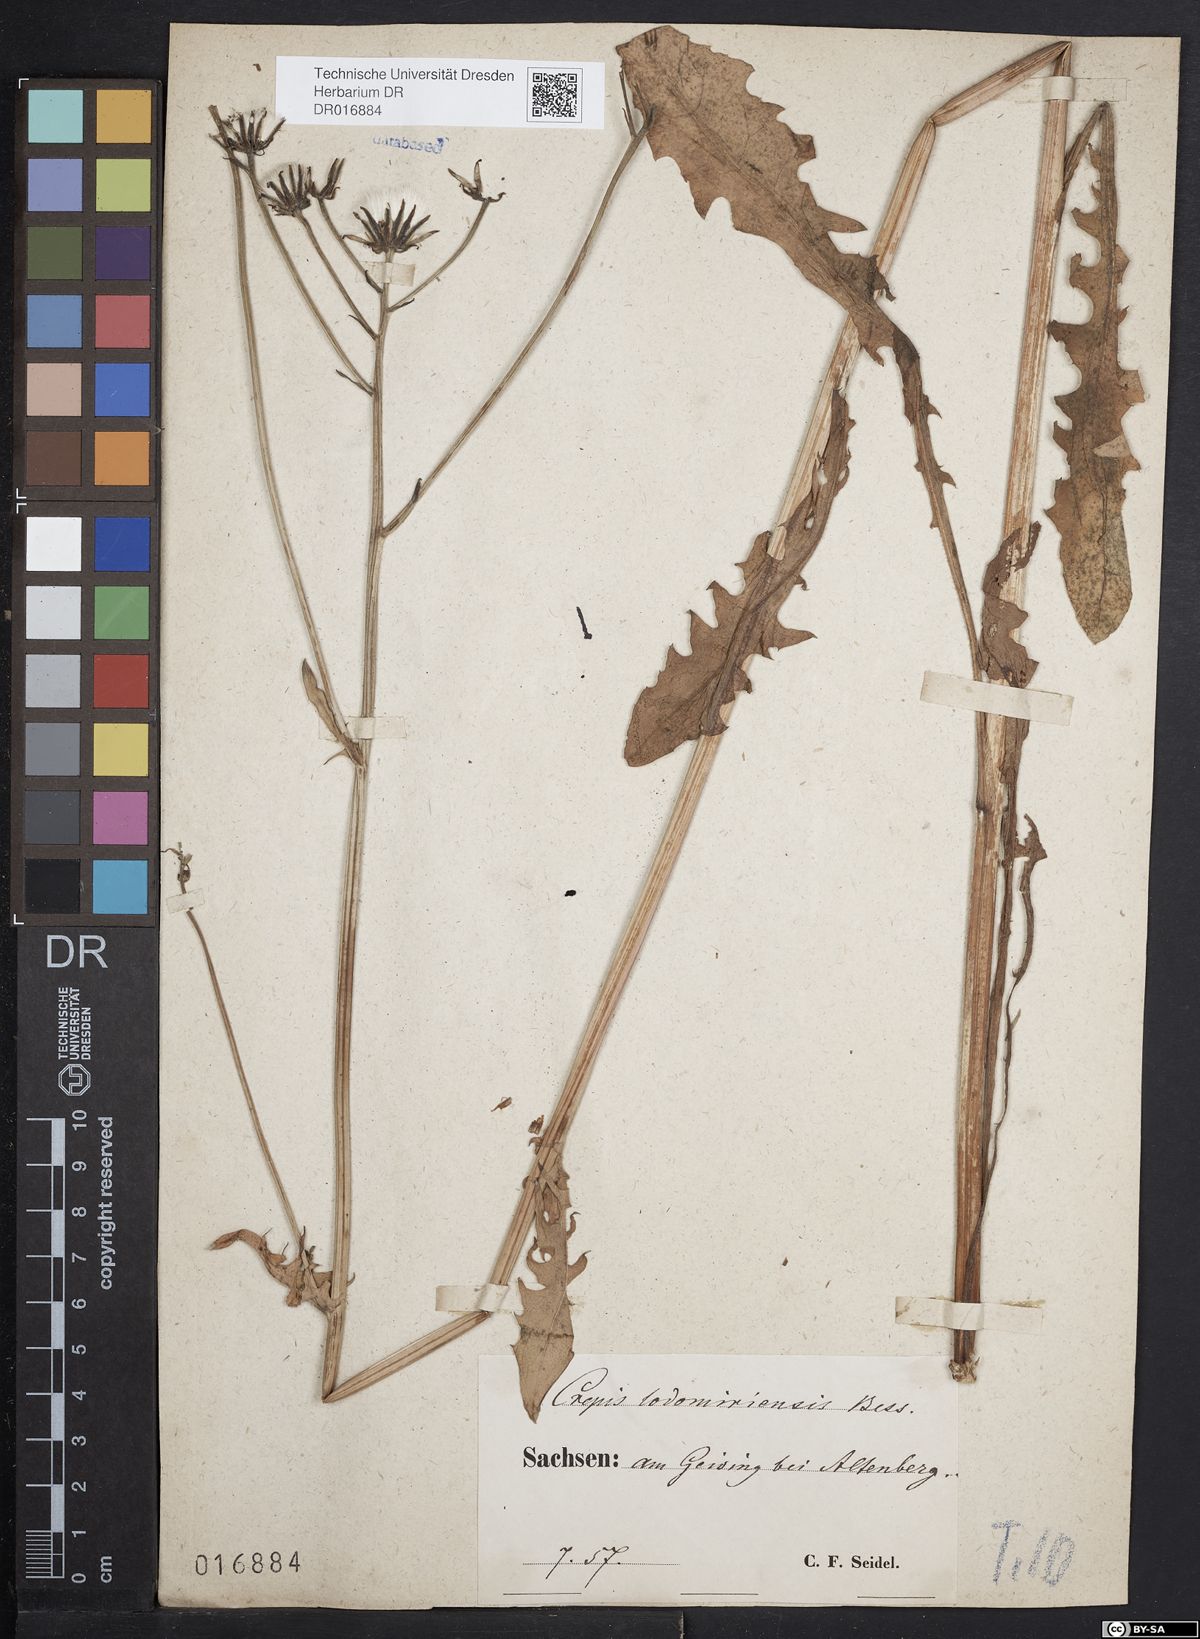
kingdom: Plantae
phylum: Tracheophyta
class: Magnoliopsida
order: Asterales
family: Asteraceae
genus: Crepis
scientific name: Crepis biennis
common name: Rough hawk's-beard
